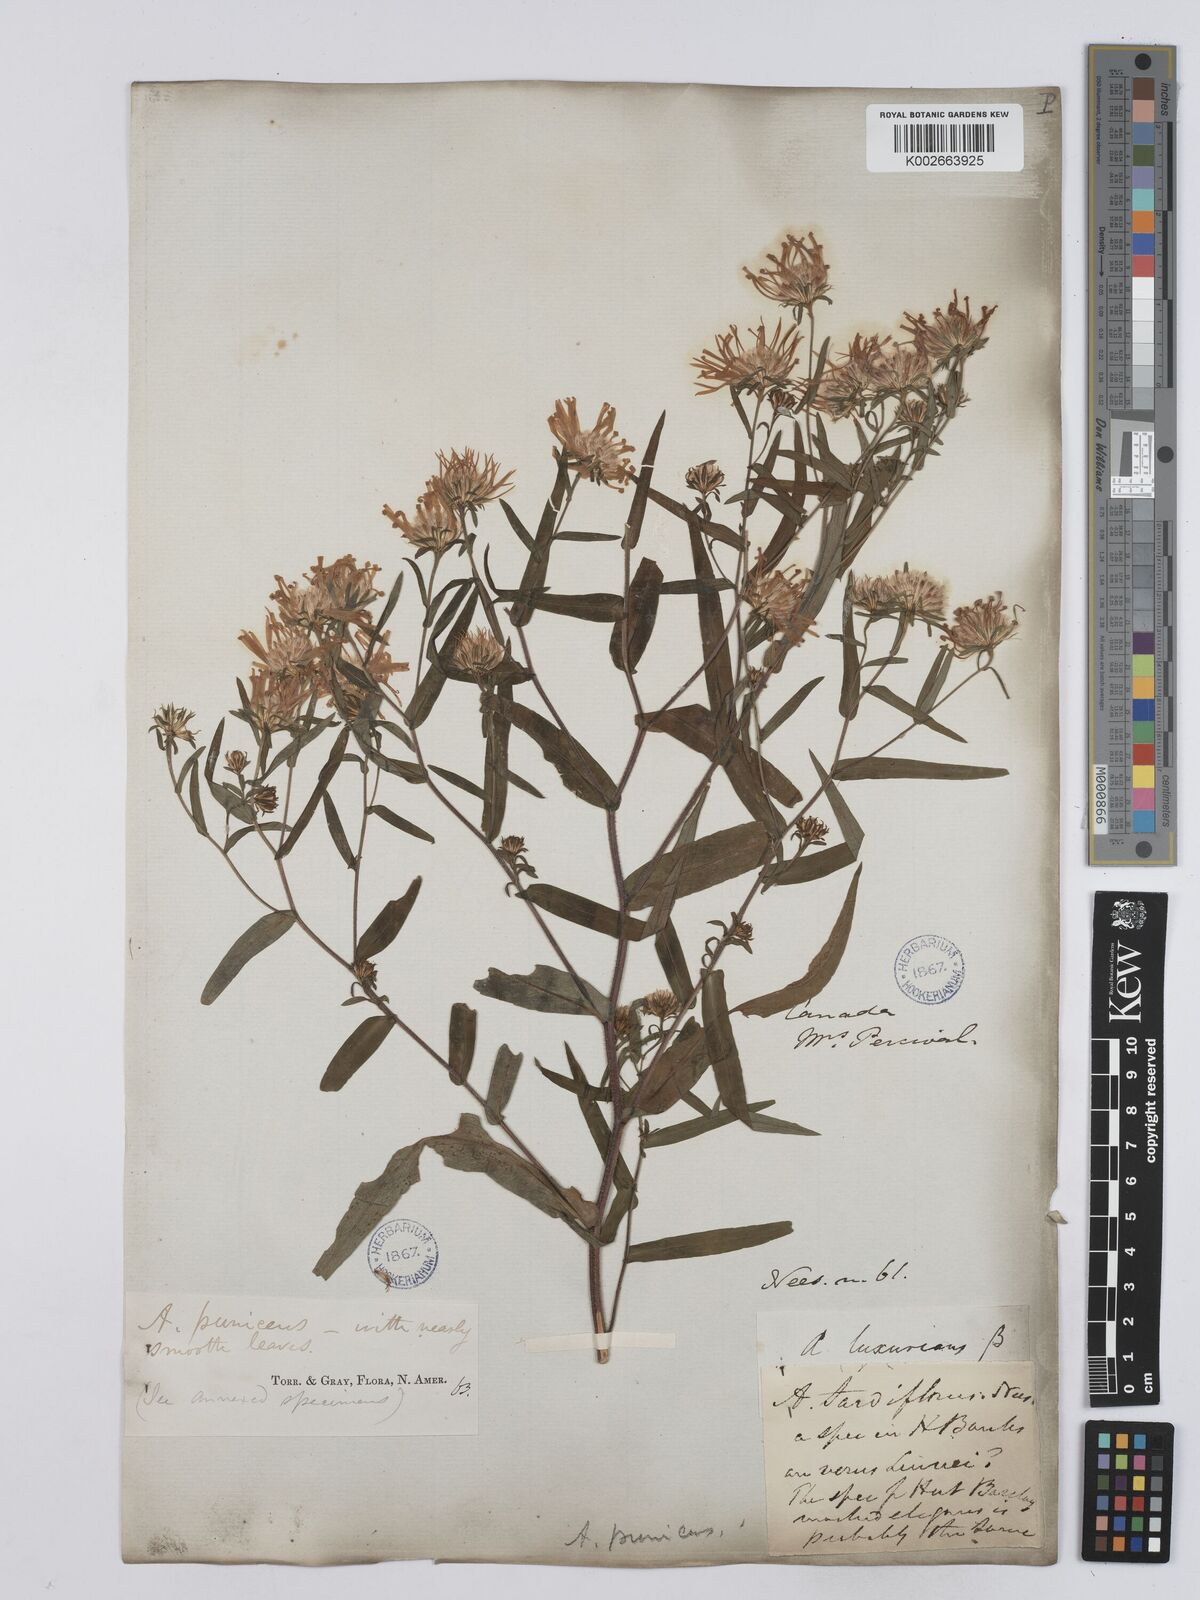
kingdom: Plantae
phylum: Tracheophyta
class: Magnoliopsida
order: Asterales
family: Asteraceae
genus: Symphyotrichum
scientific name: Symphyotrichum puniceum
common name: Bog aster
